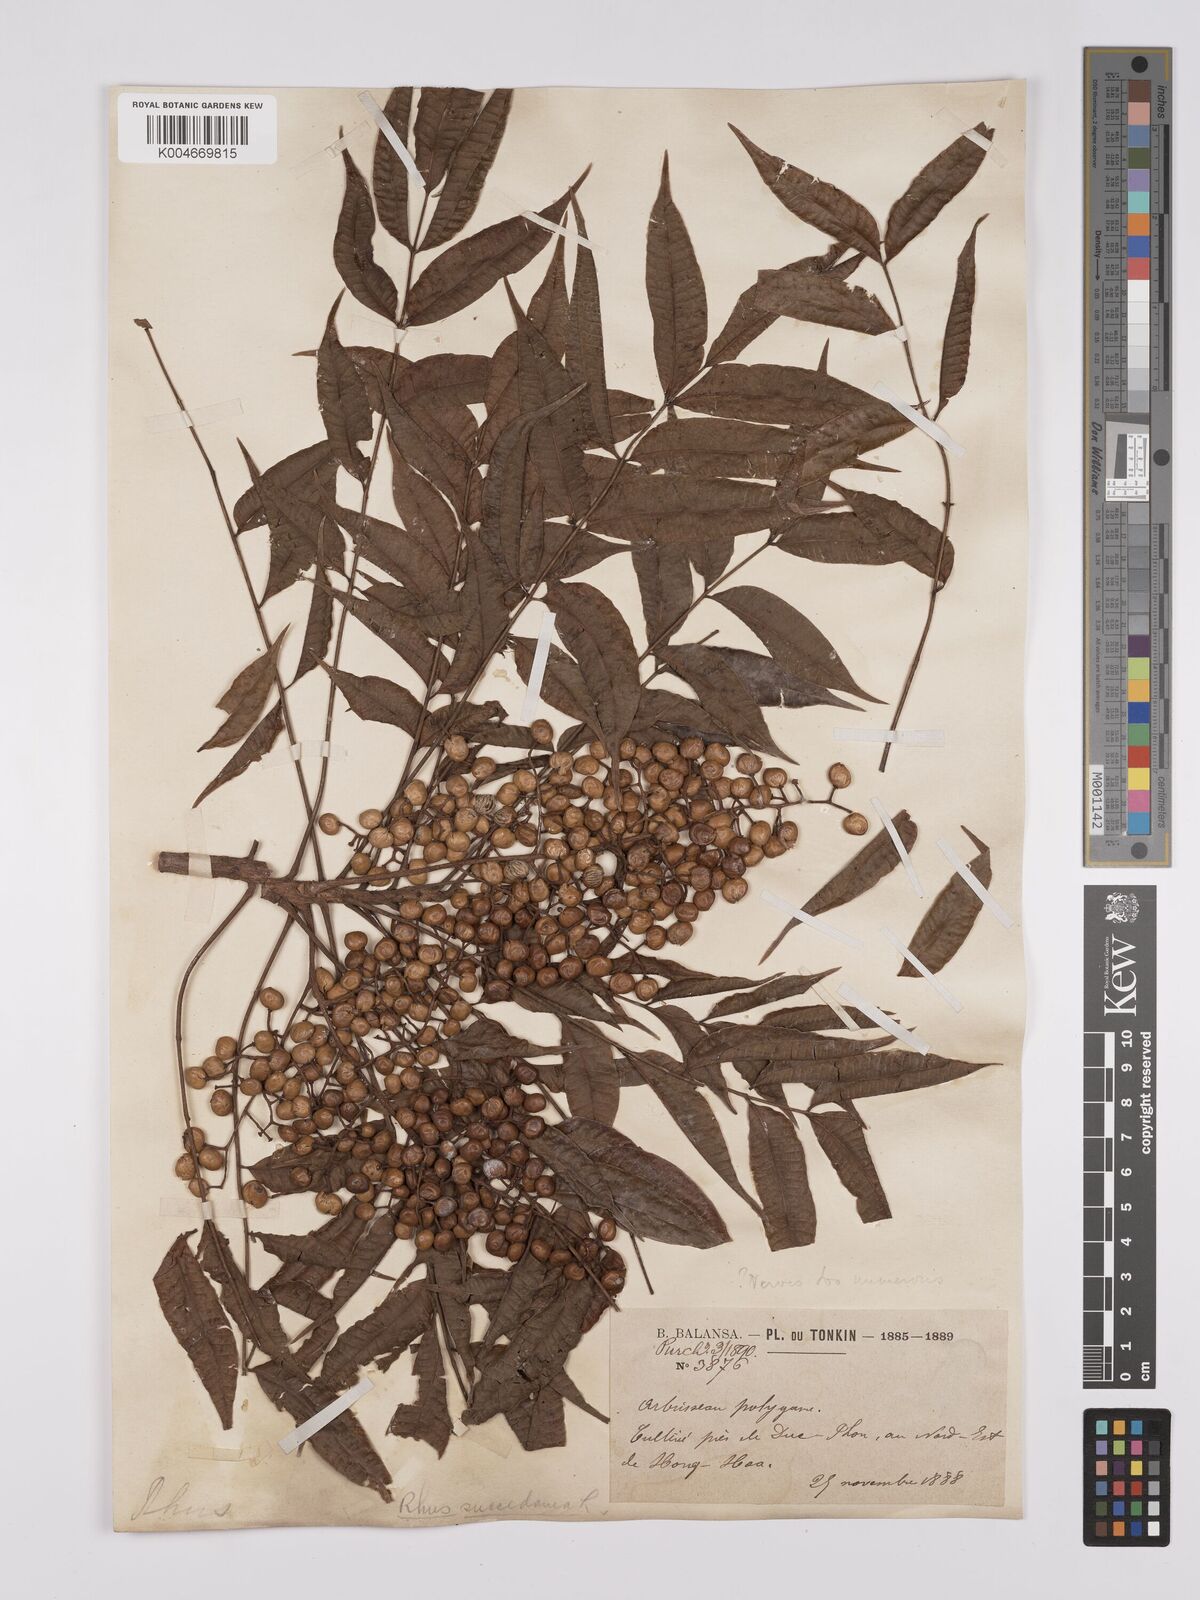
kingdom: Plantae
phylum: Tracheophyta
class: Magnoliopsida
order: Sapindales
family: Anacardiaceae
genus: Toxicodendron
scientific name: Toxicodendron succedaneum
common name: Wax tree
